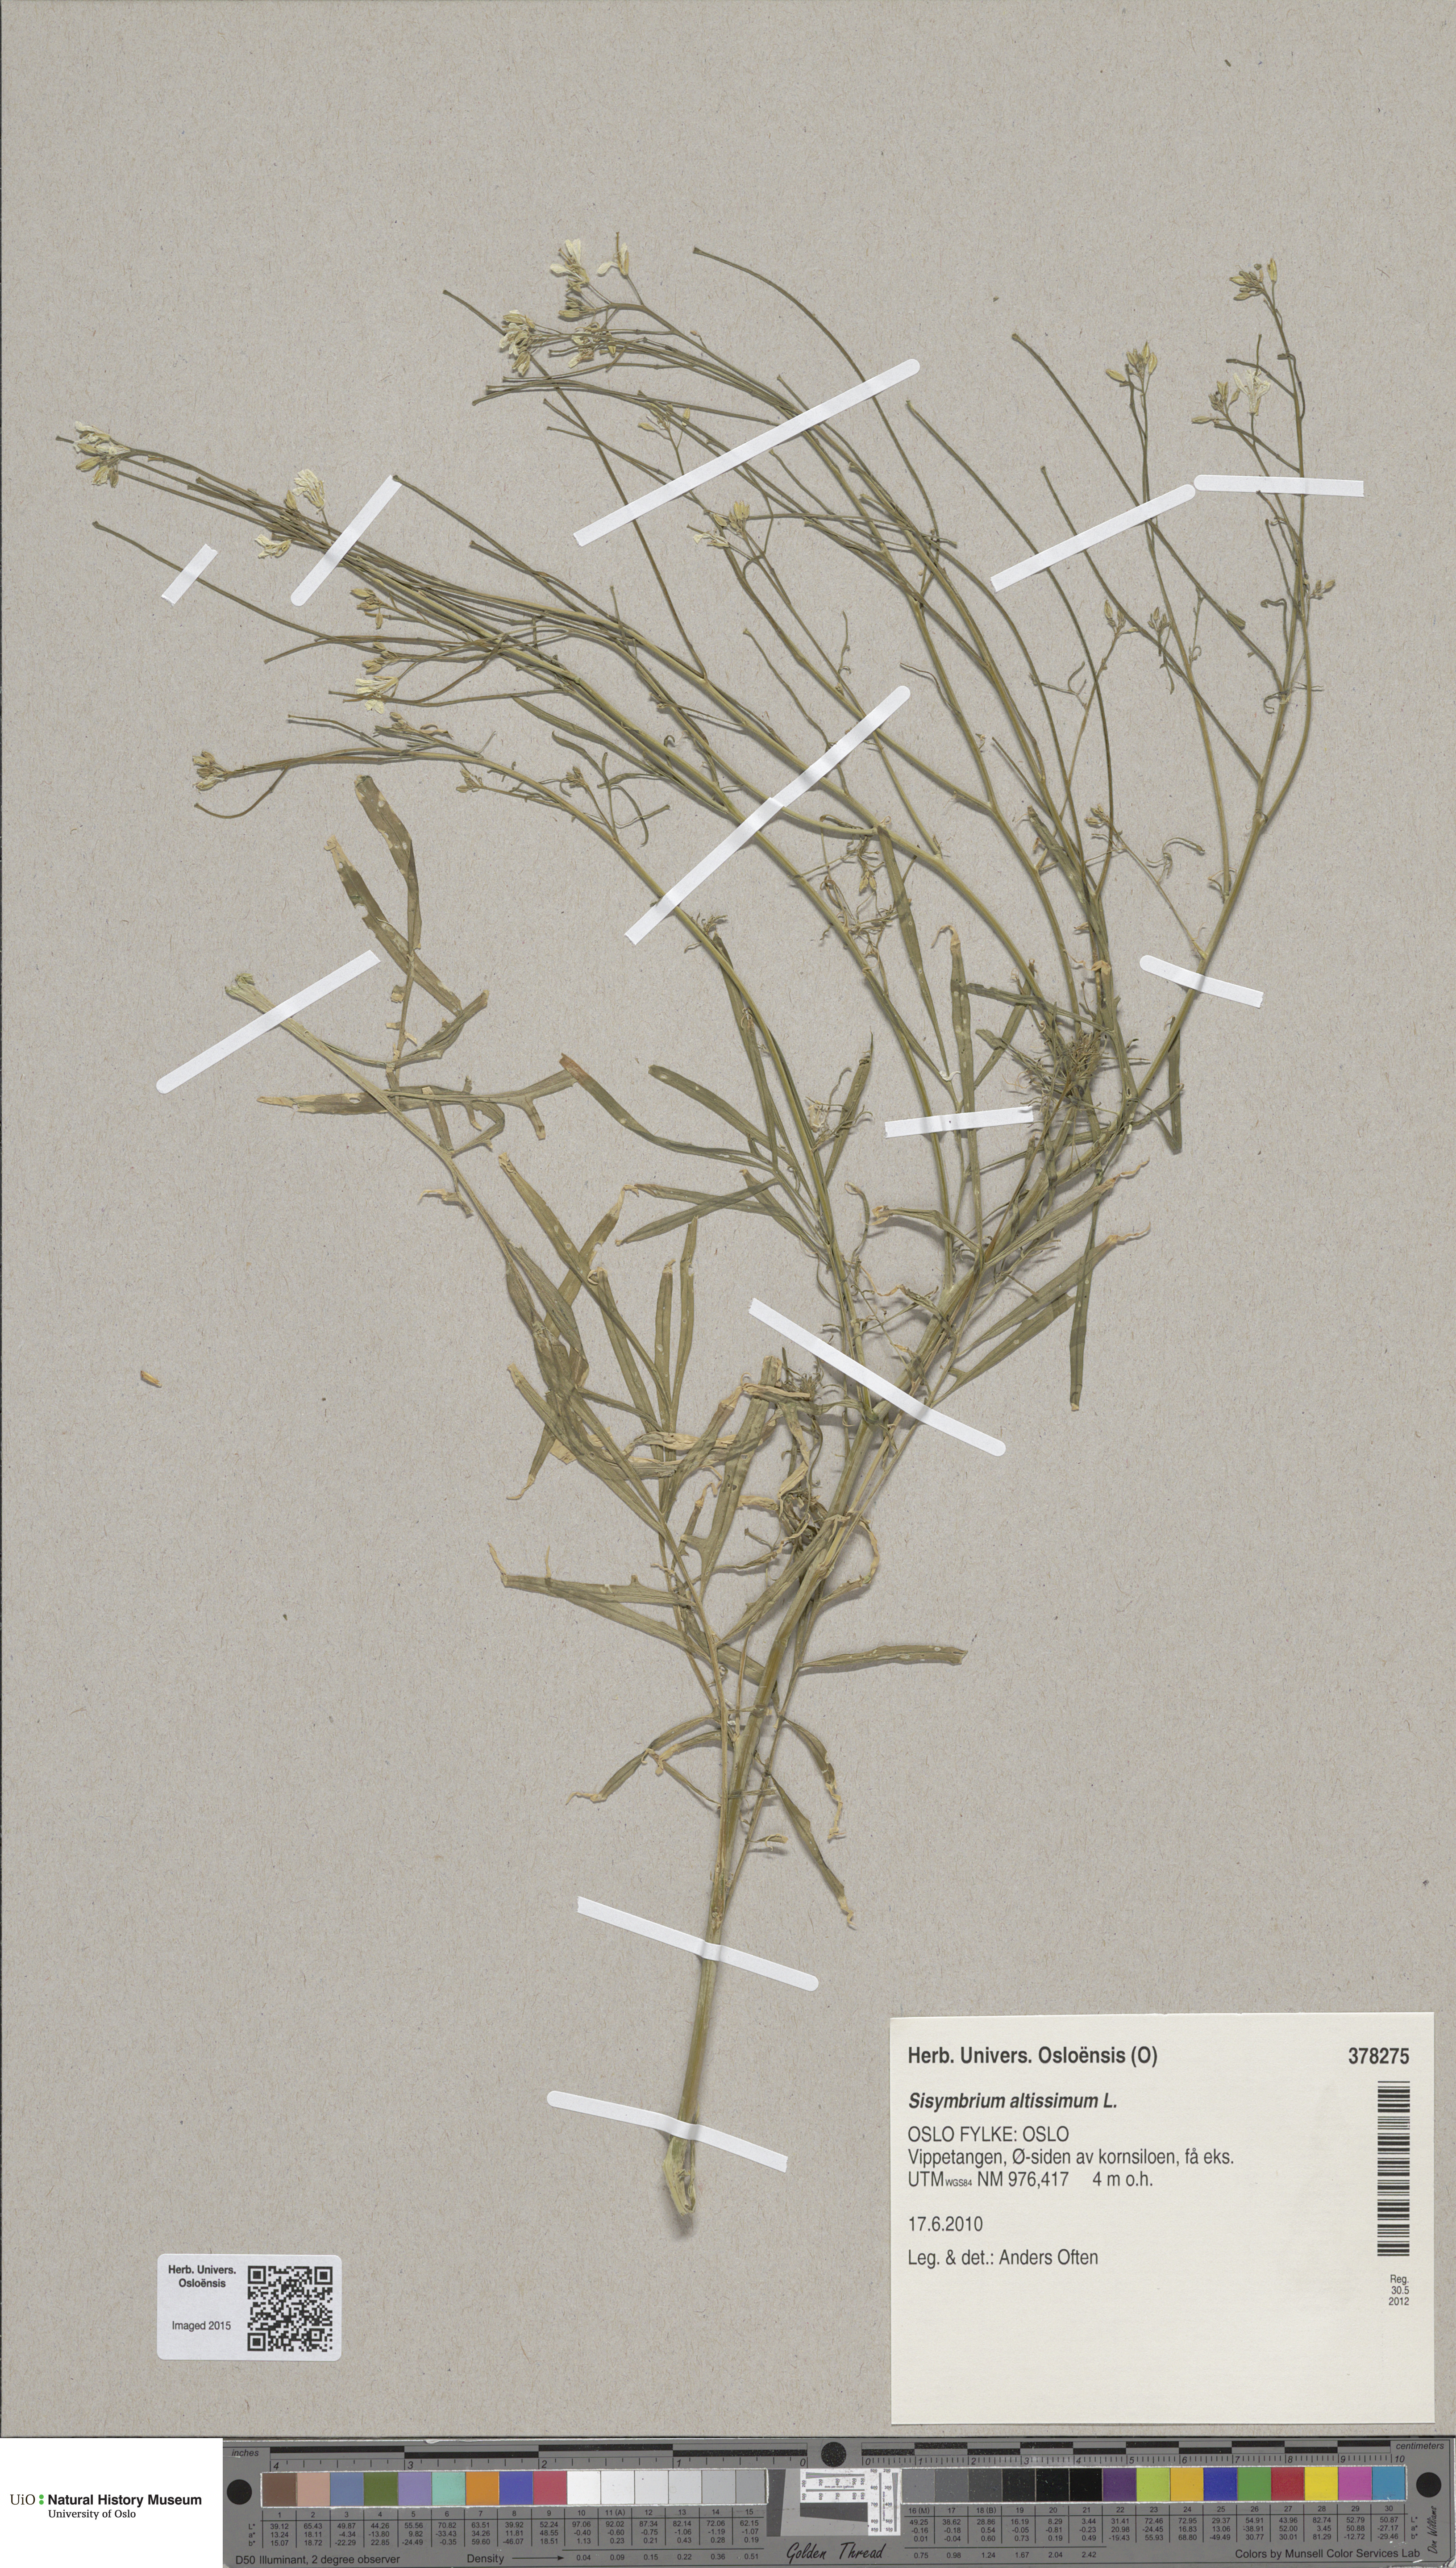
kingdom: Plantae
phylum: Tracheophyta
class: Magnoliopsida
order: Brassicales
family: Brassicaceae
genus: Sisymbrium
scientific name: Sisymbrium altissimum
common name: Tall rocket
